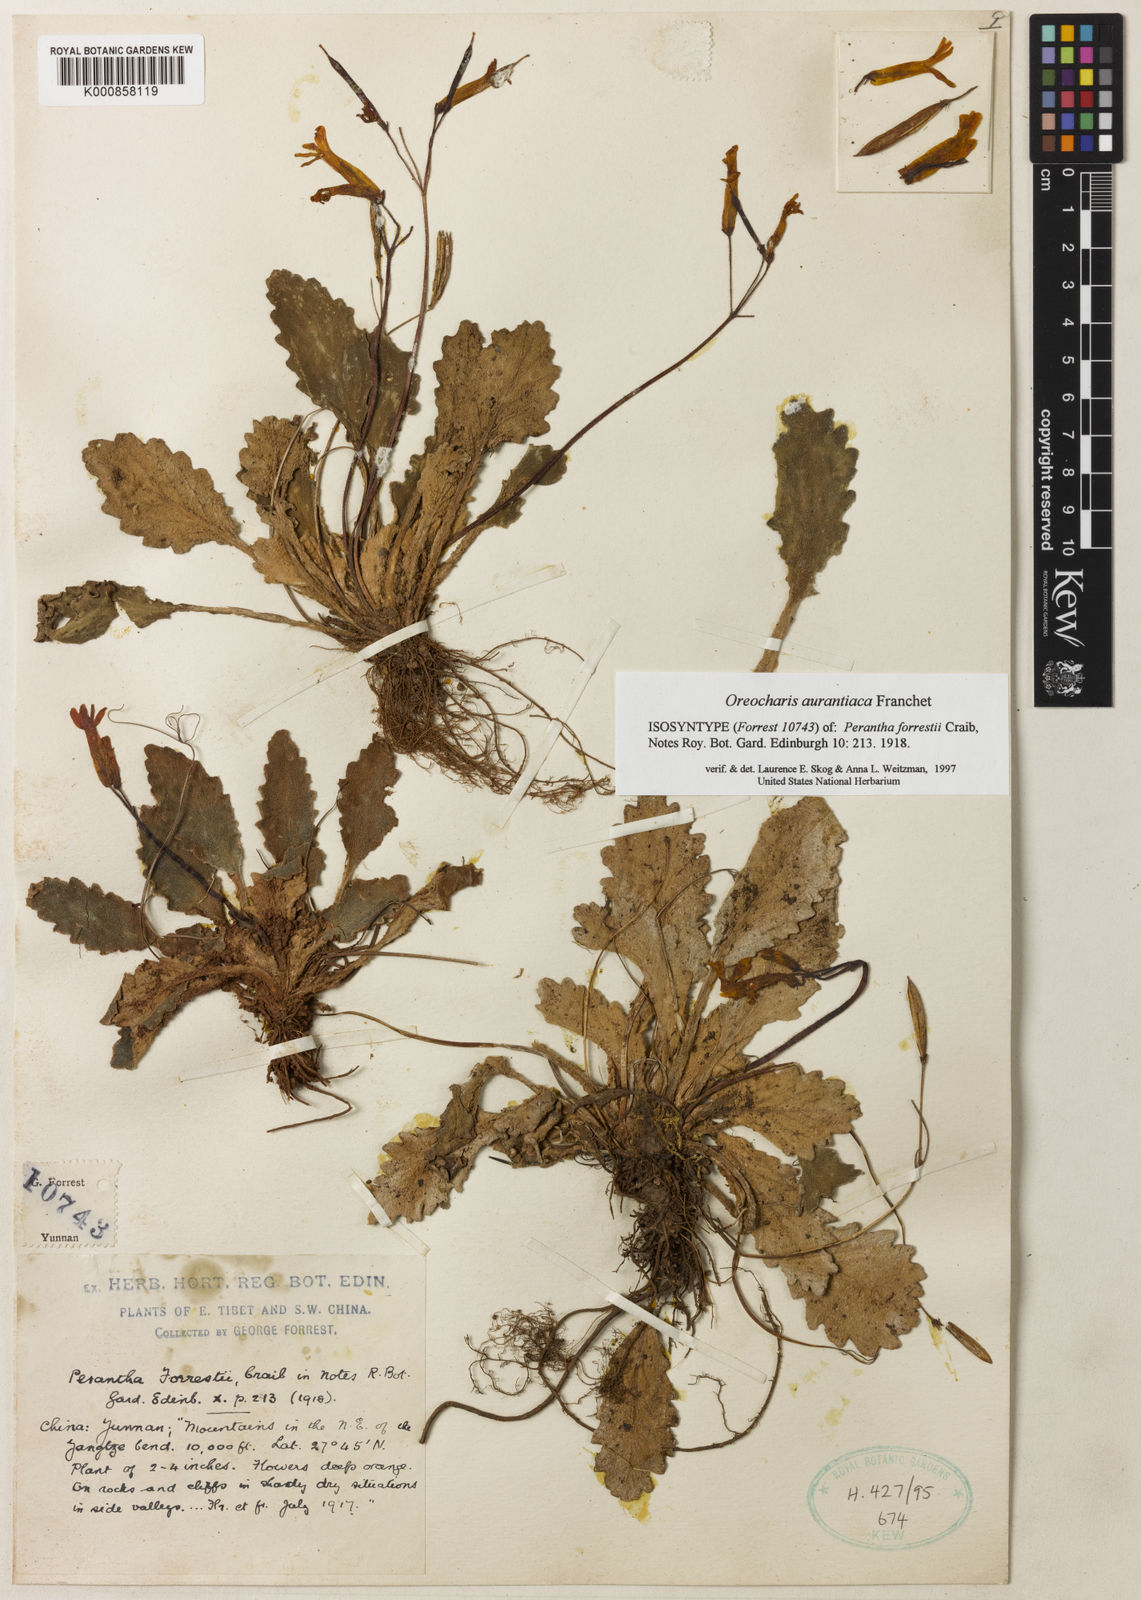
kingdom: Plantae
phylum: Tracheophyta
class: Magnoliopsida
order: Lamiales
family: Gesneriaceae
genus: Oreocharis
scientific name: Oreocharis
